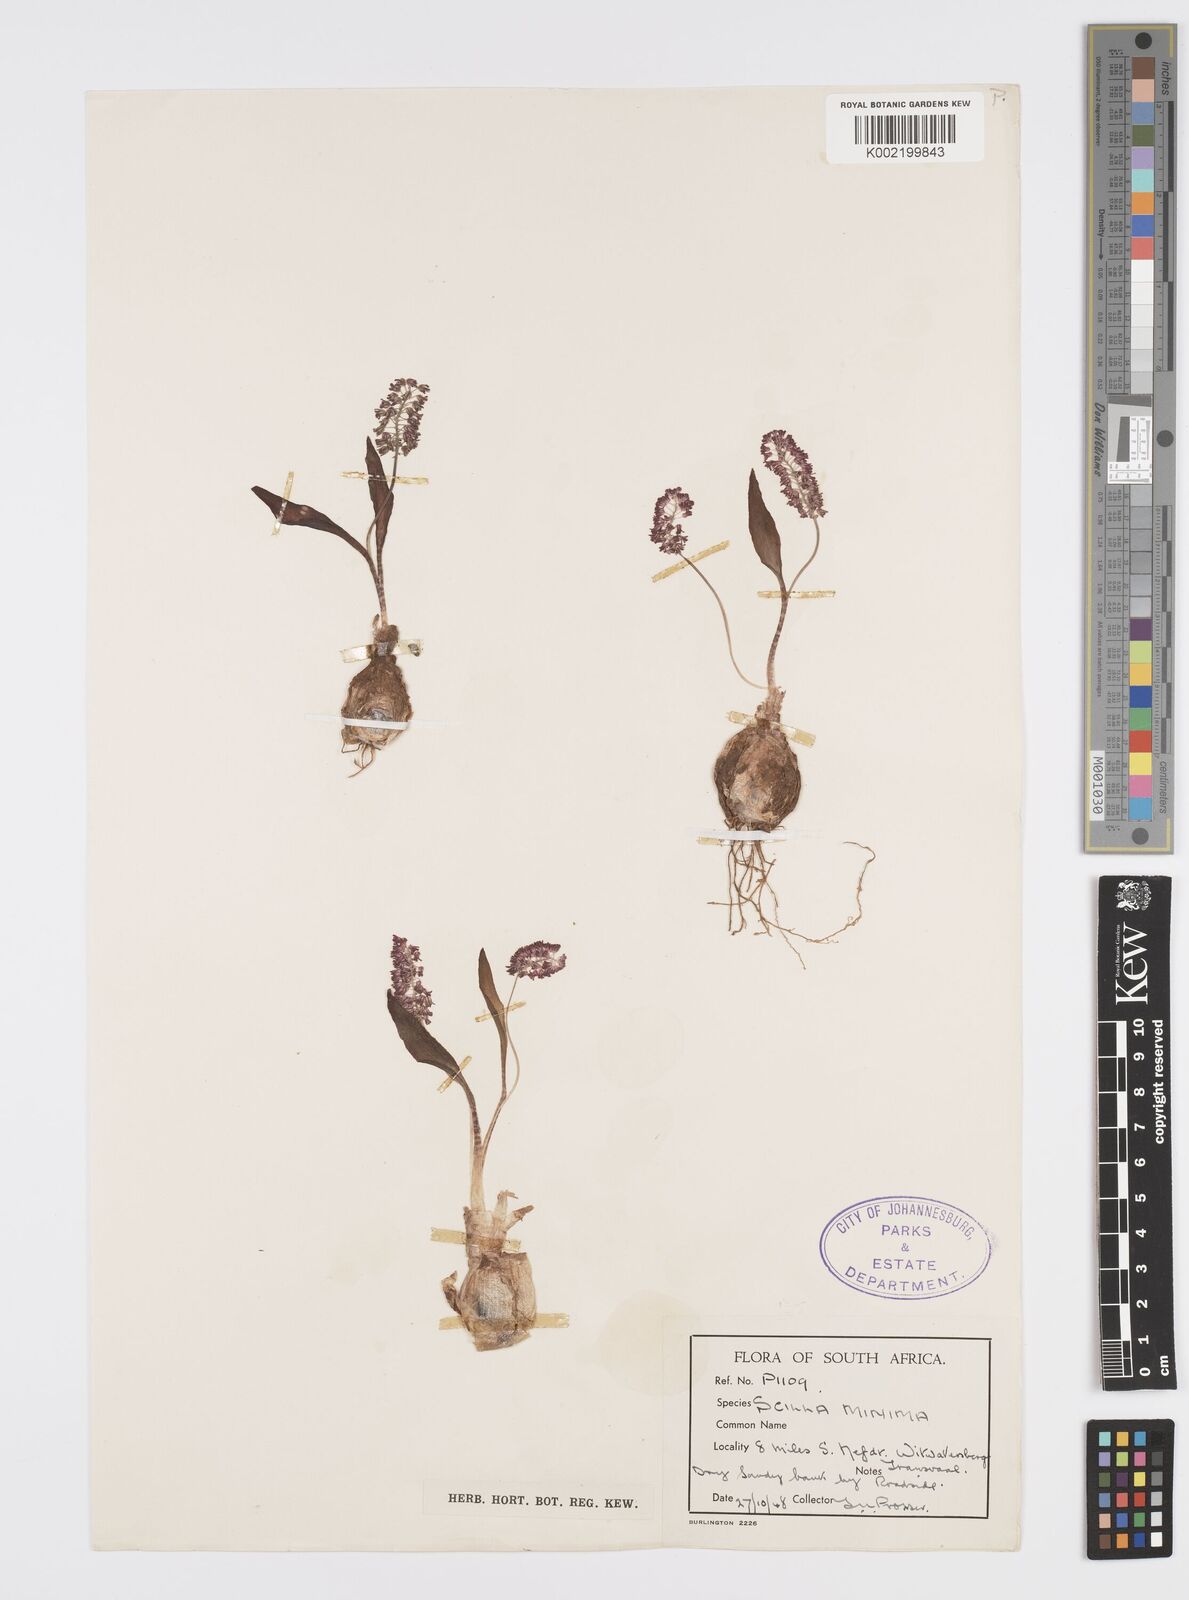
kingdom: Plantae
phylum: Tracheophyta
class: Liliopsida
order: Asparagales
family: Asparagaceae
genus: Ledebouria
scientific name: Ledebouria cooperi
